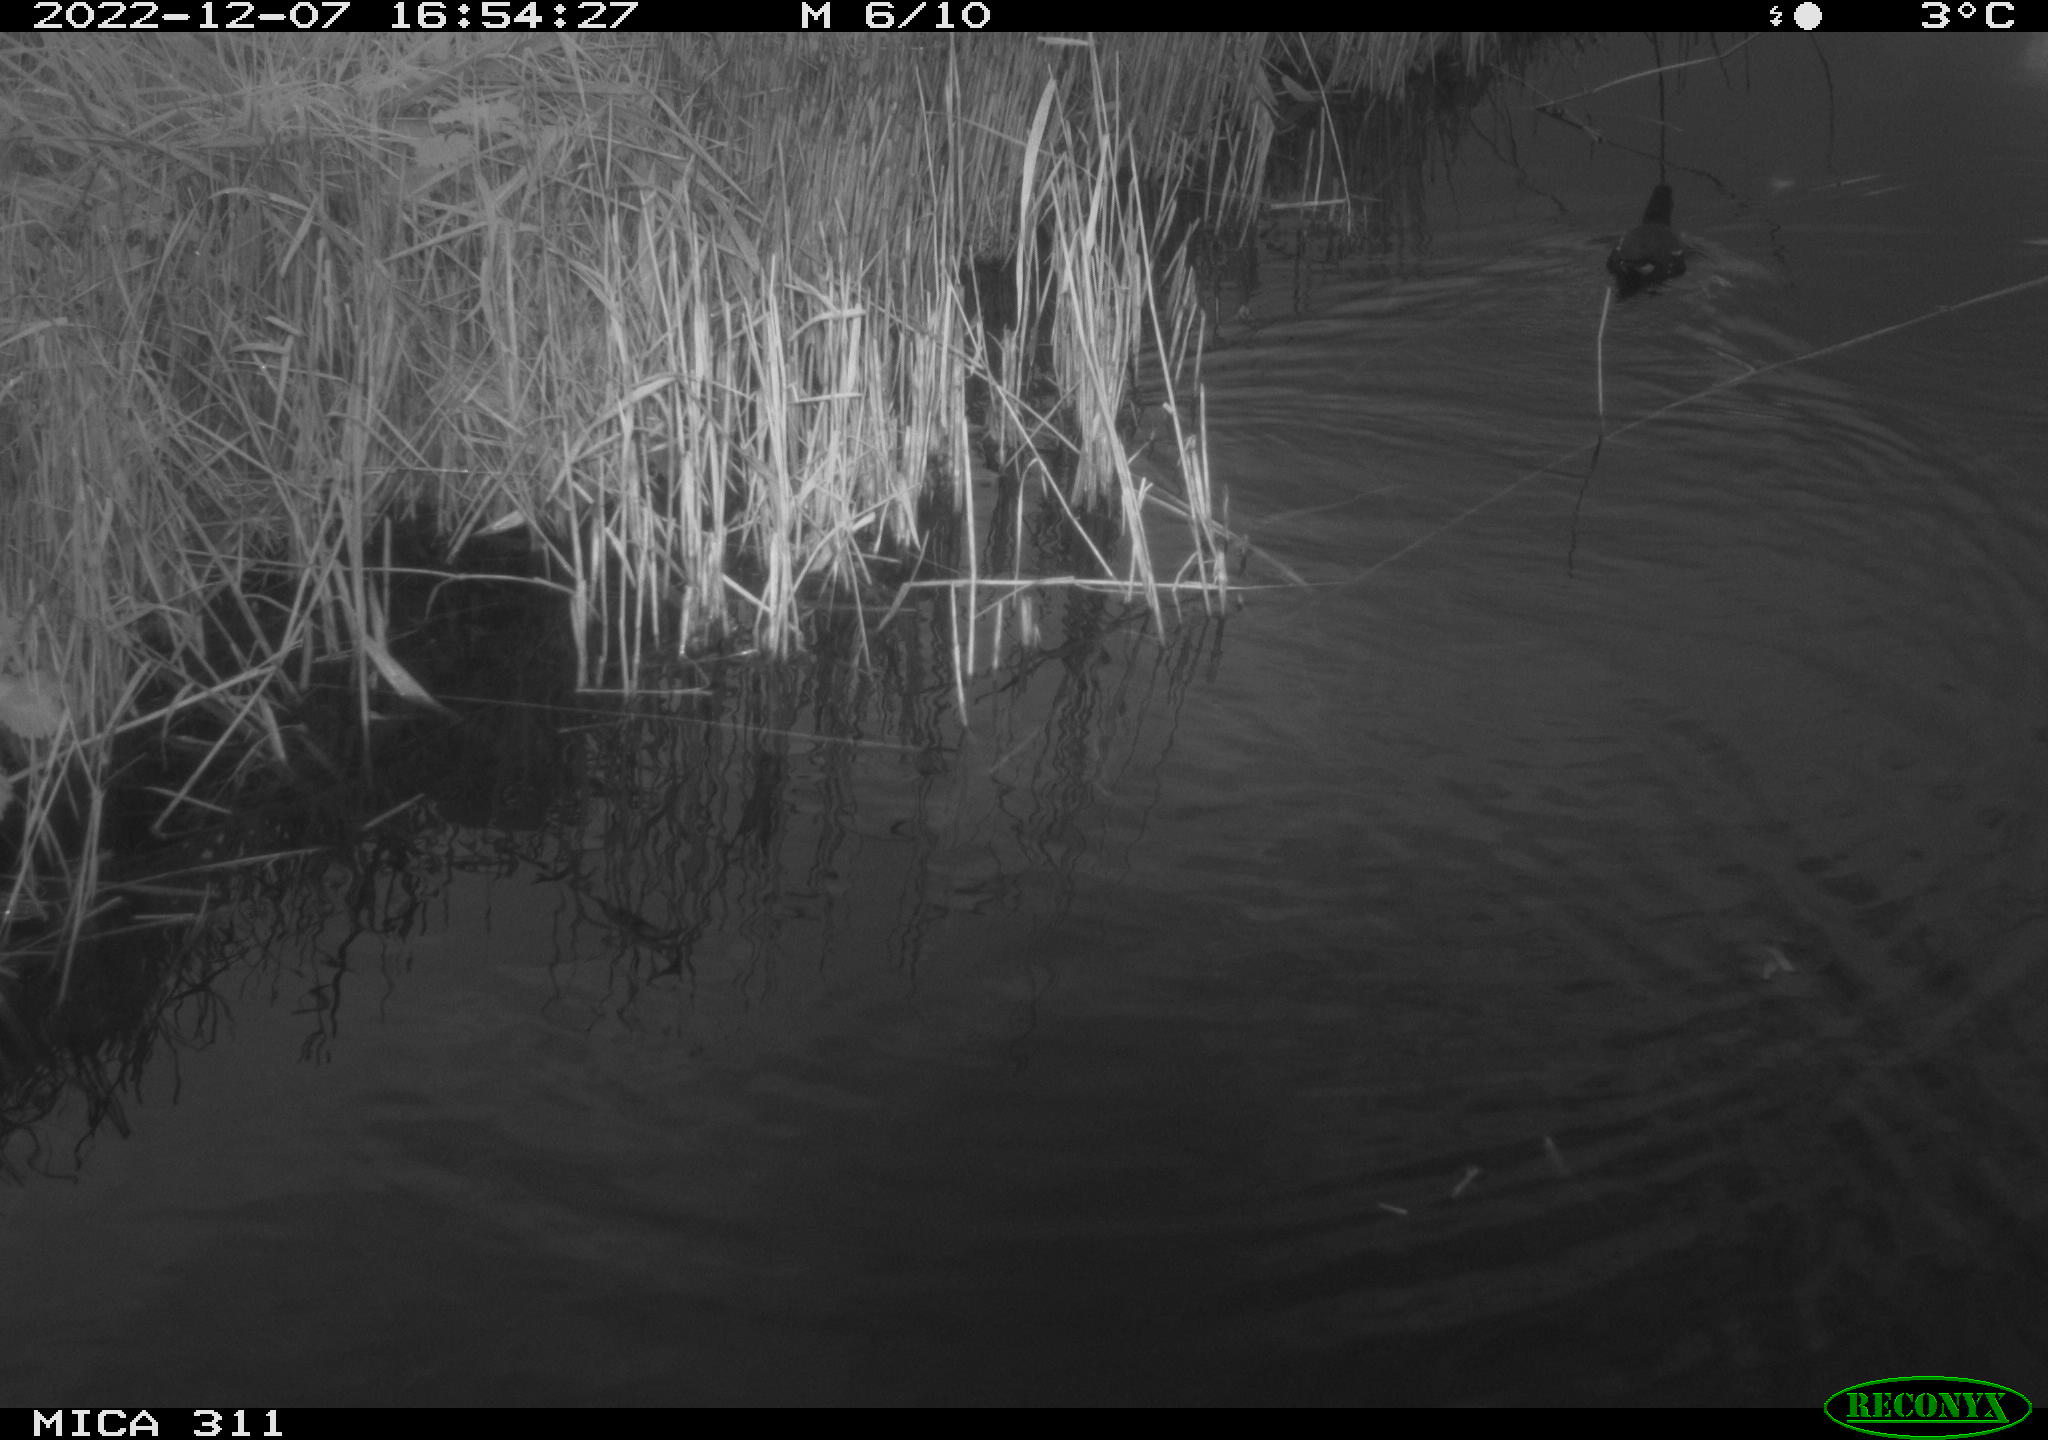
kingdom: Animalia
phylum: Chordata
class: Aves
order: Gruiformes
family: Rallidae
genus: Gallinula
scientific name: Gallinula chloropus
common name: Common moorhen
